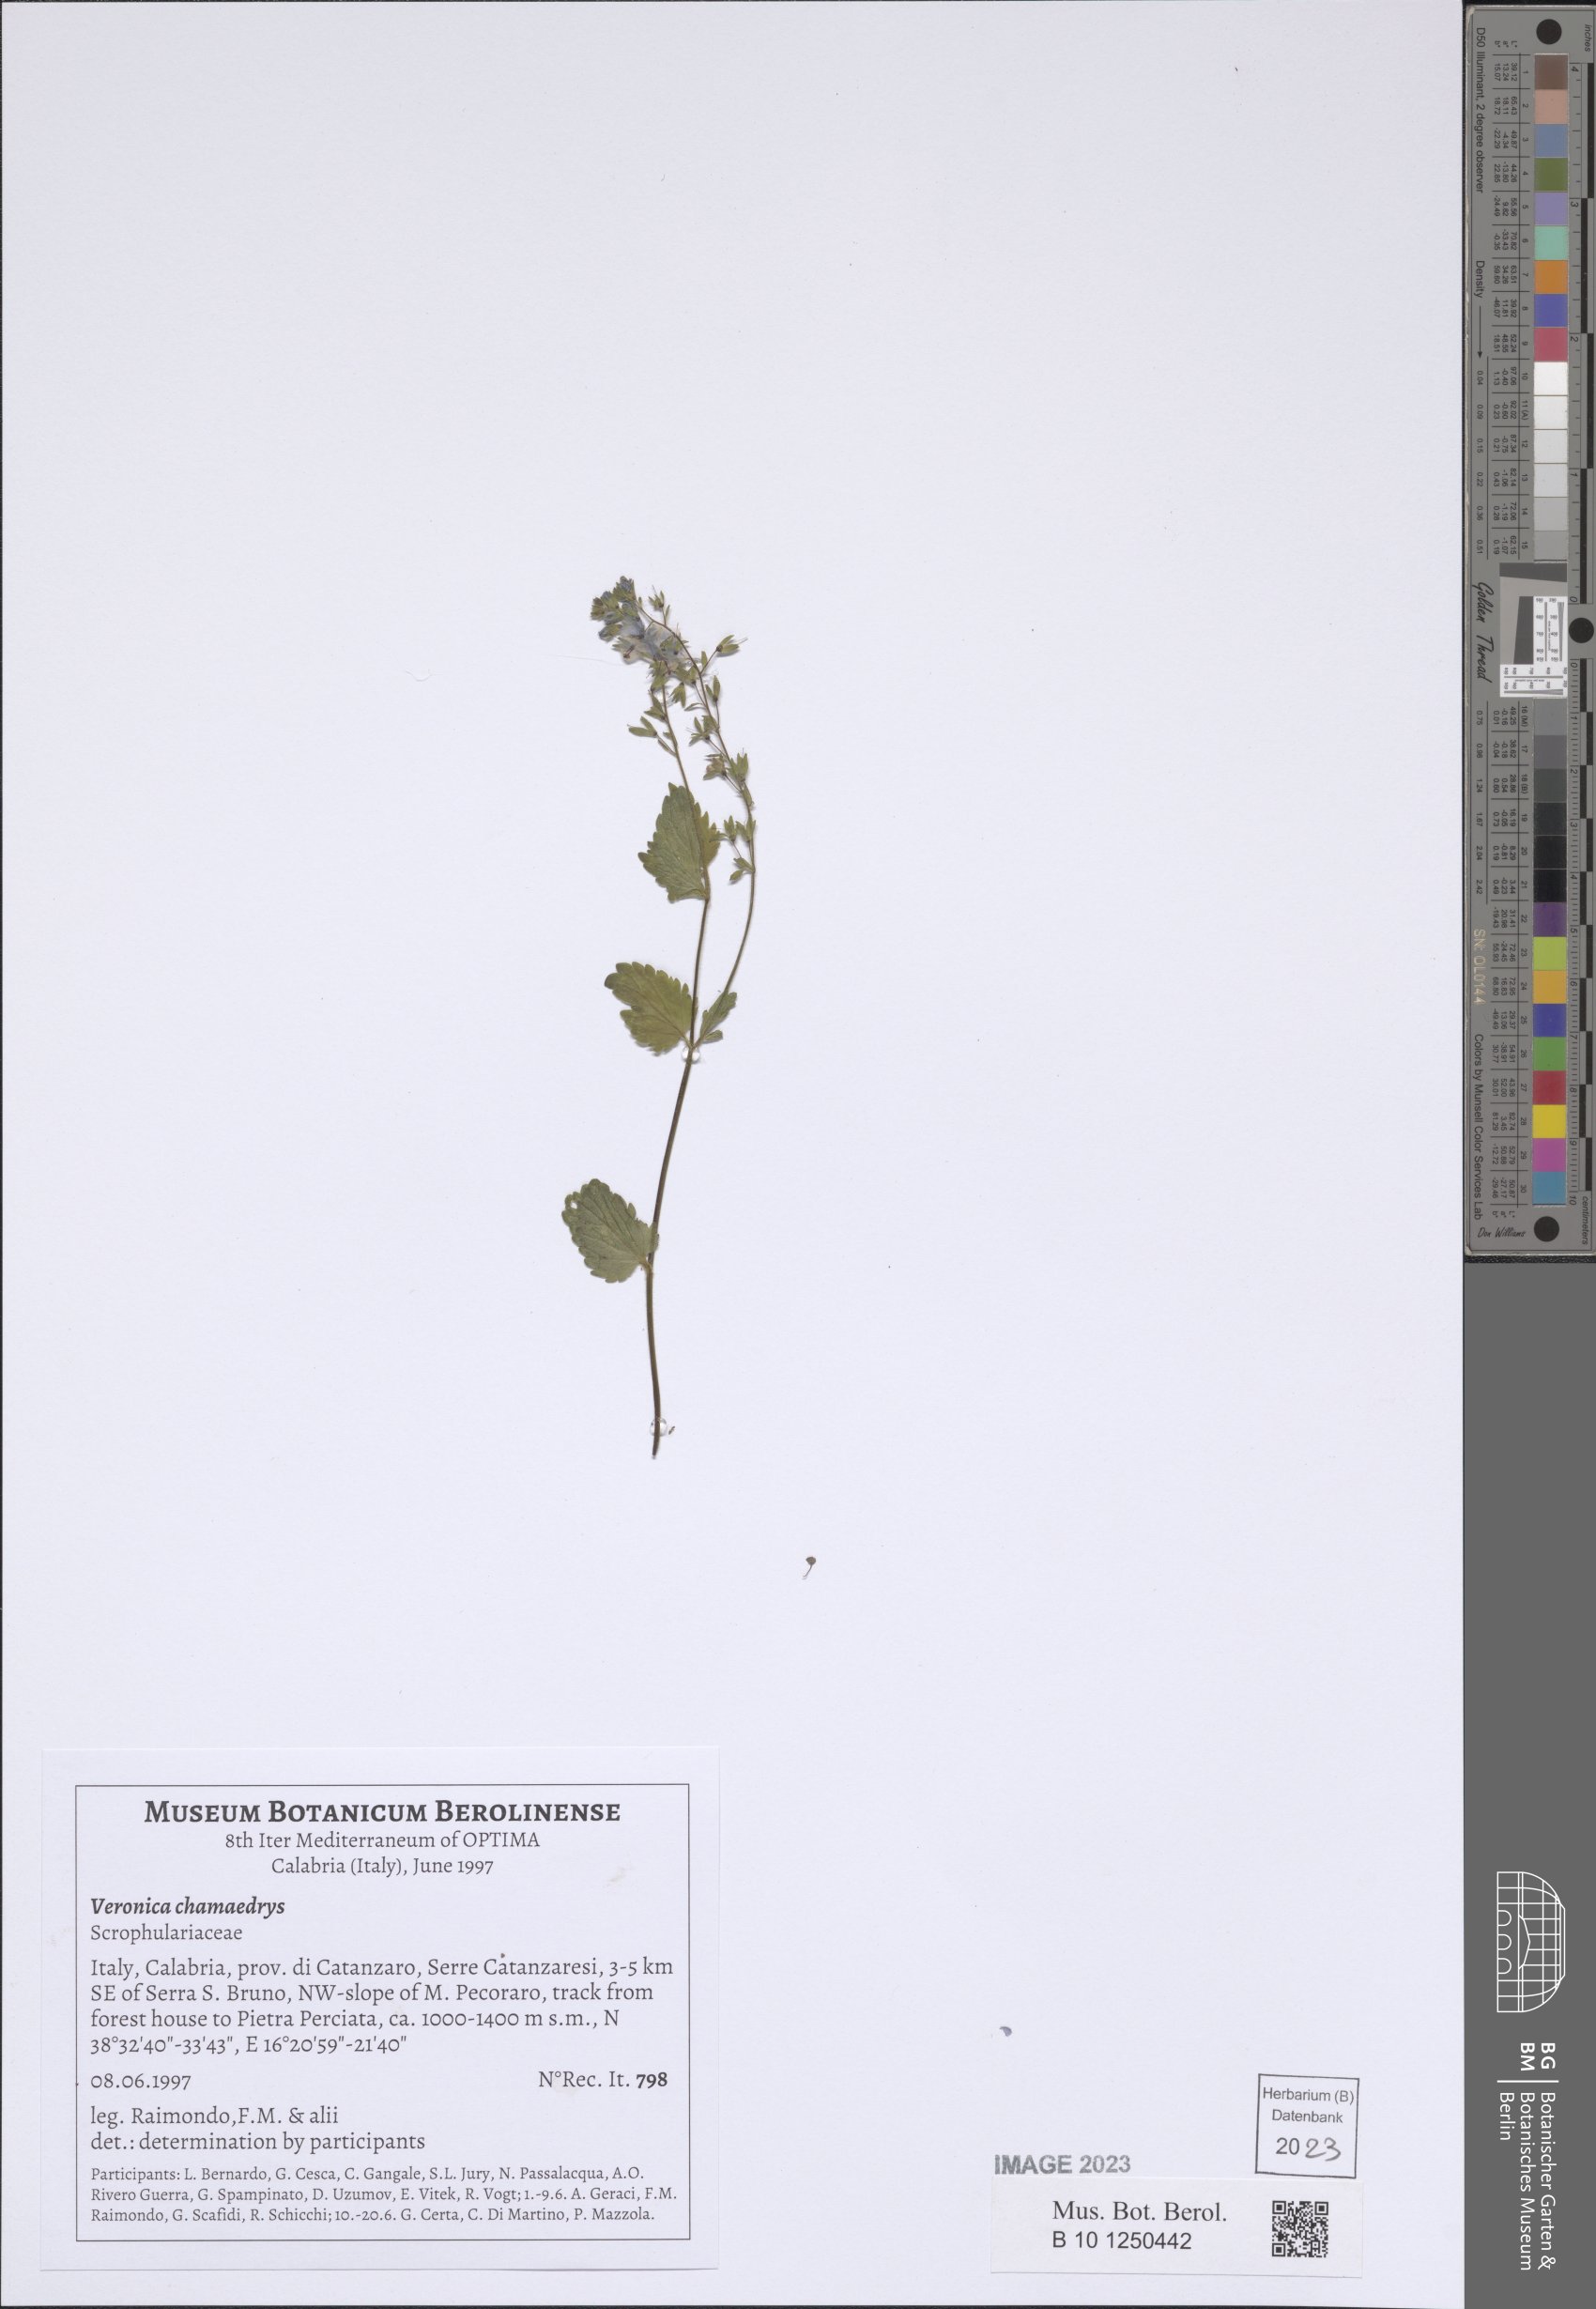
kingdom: Plantae
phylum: Tracheophyta
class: Magnoliopsida
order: Lamiales
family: Plantaginaceae
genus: Veronica
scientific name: Veronica chamaedrys
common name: Germander speedwell
